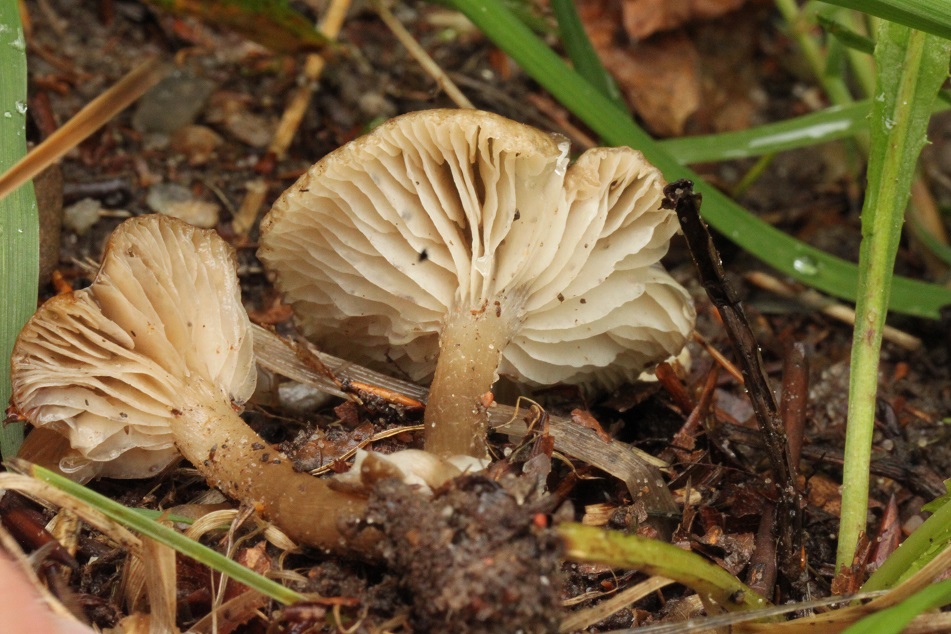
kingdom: Fungi
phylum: Basidiomycota
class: Agaricomycetes
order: Agaricales
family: Entolomataceae
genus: Entoloma
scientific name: Entoloma bryorum
